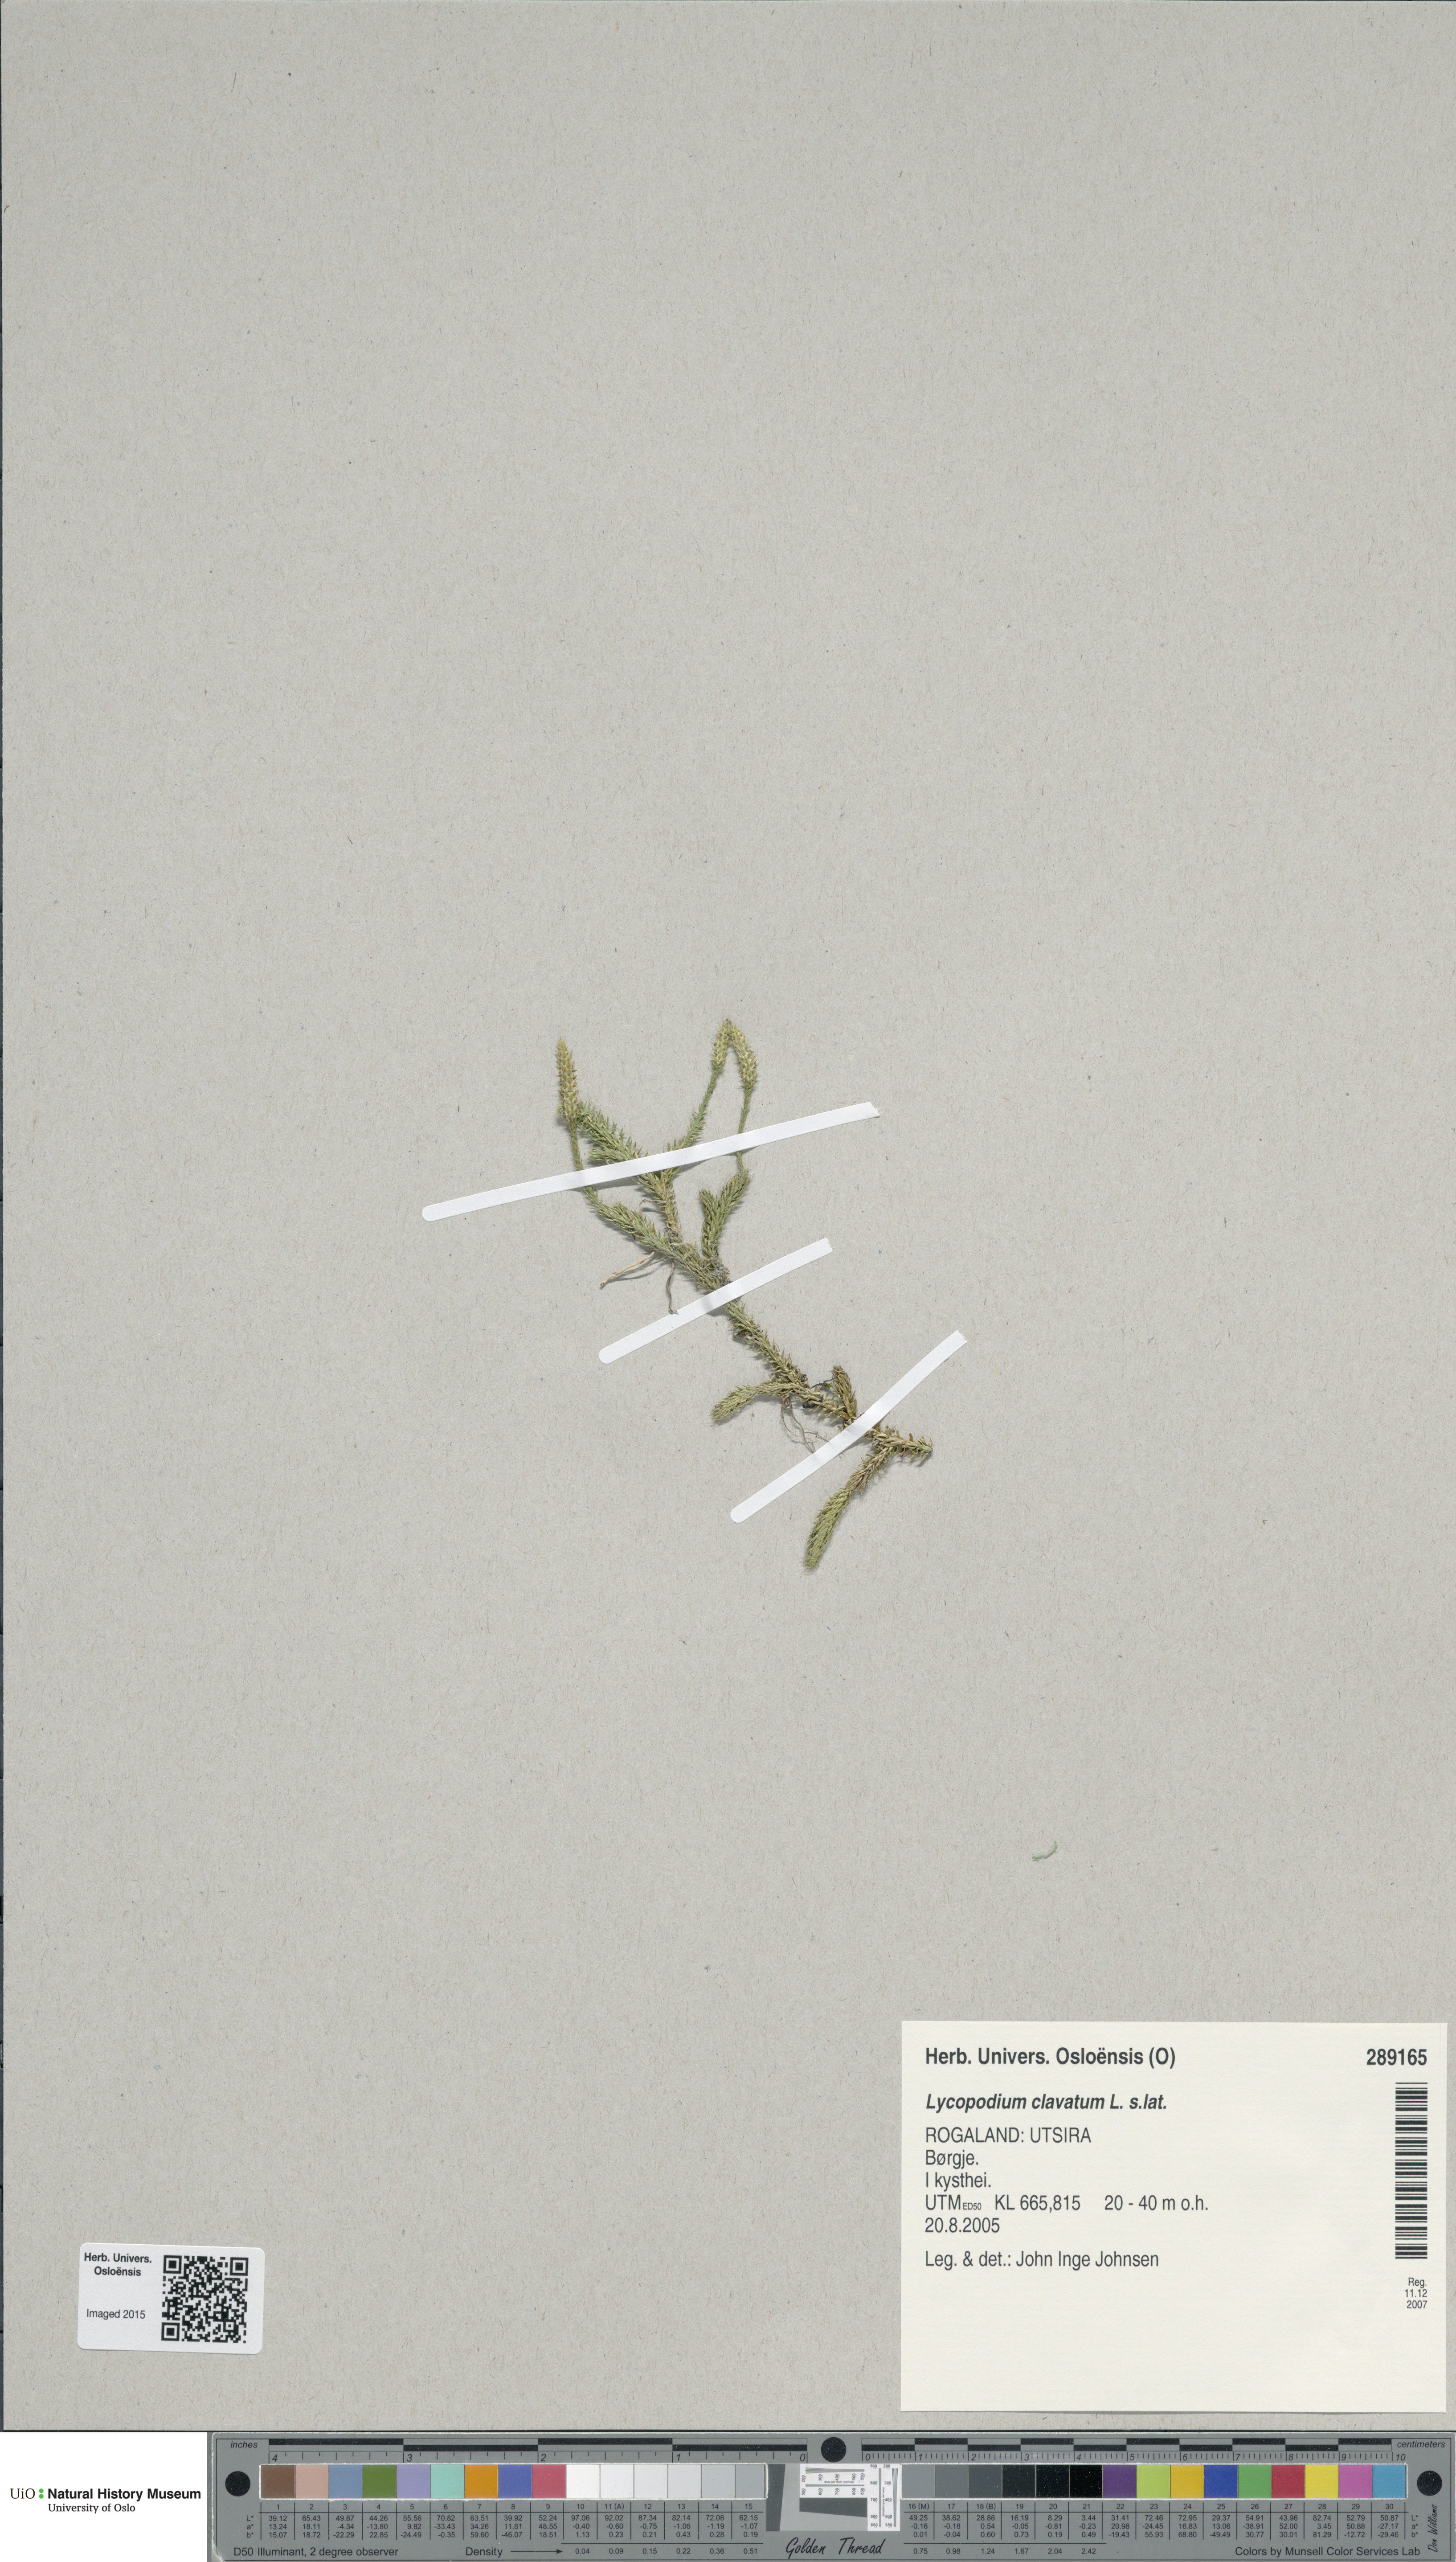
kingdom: Plantae
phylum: Tracheophyta
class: Lycopodiopsida
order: Lycopodiales
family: Lycopodiaceae
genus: Lycopodium
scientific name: Lycopodium clavatum
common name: Stag's-horn clubmoss
